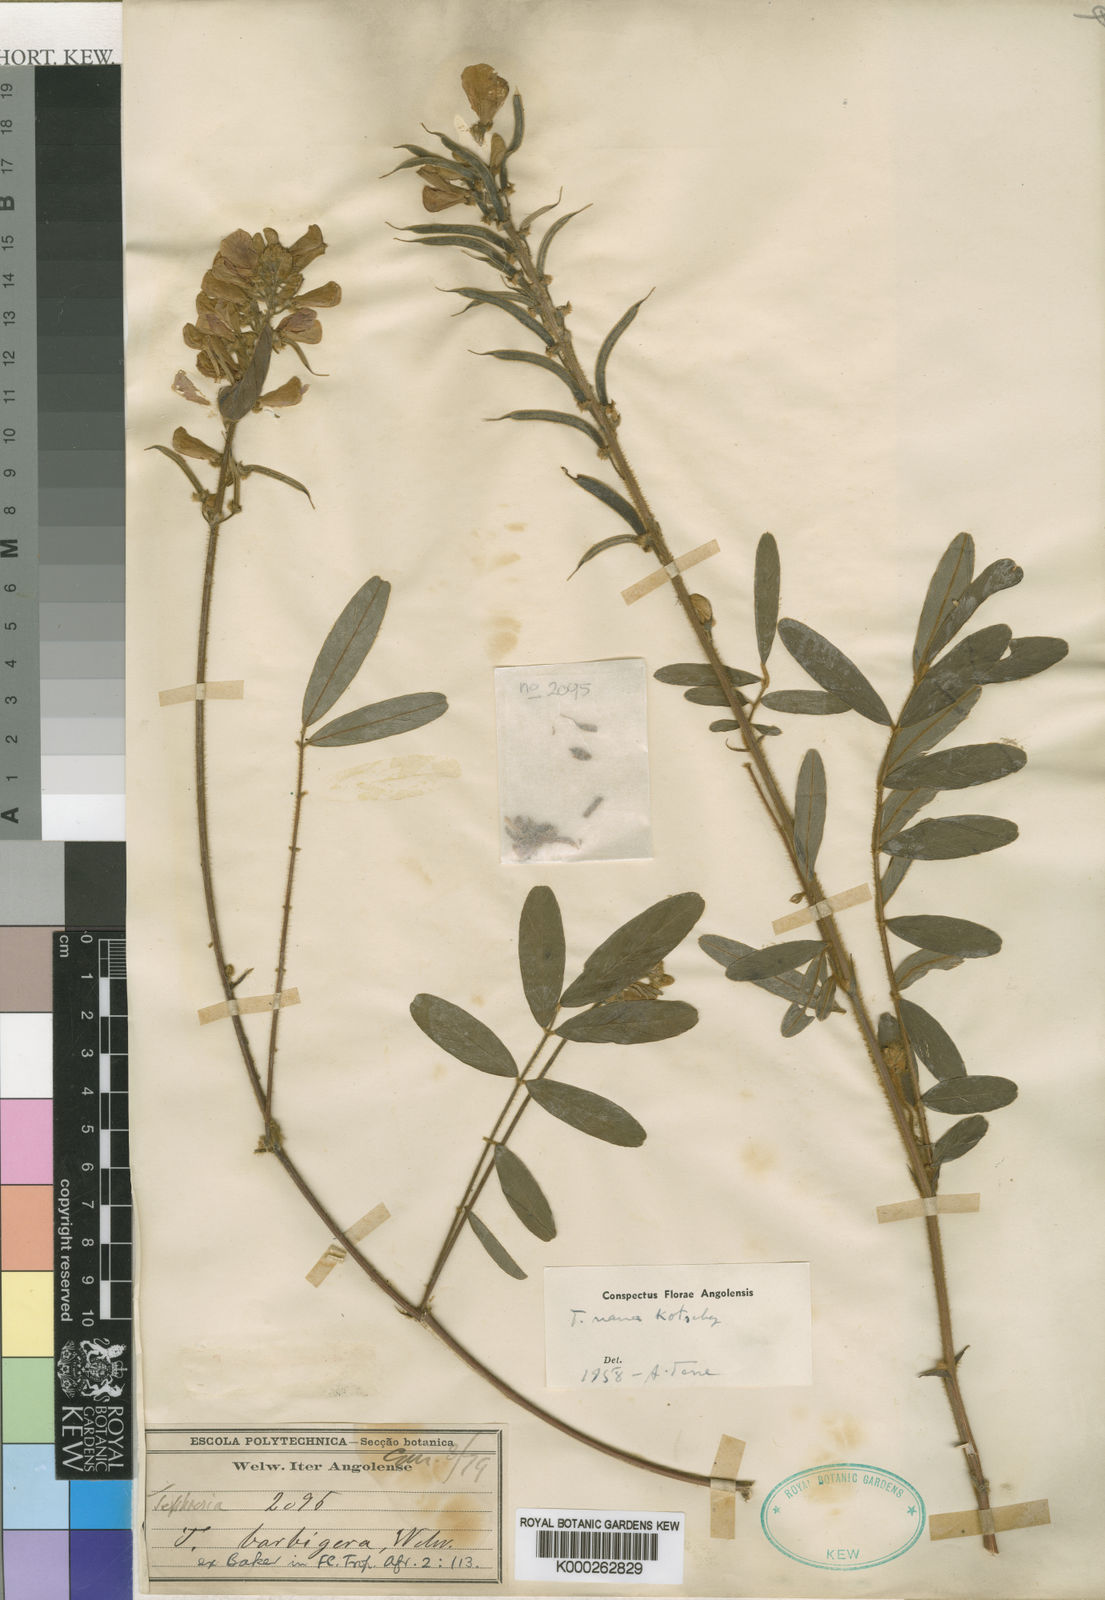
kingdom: Plantae
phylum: Tracheophyta
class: Magnoliopsida
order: Fabales
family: Fabaceae
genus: Tephrosia
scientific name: Tephrosia
